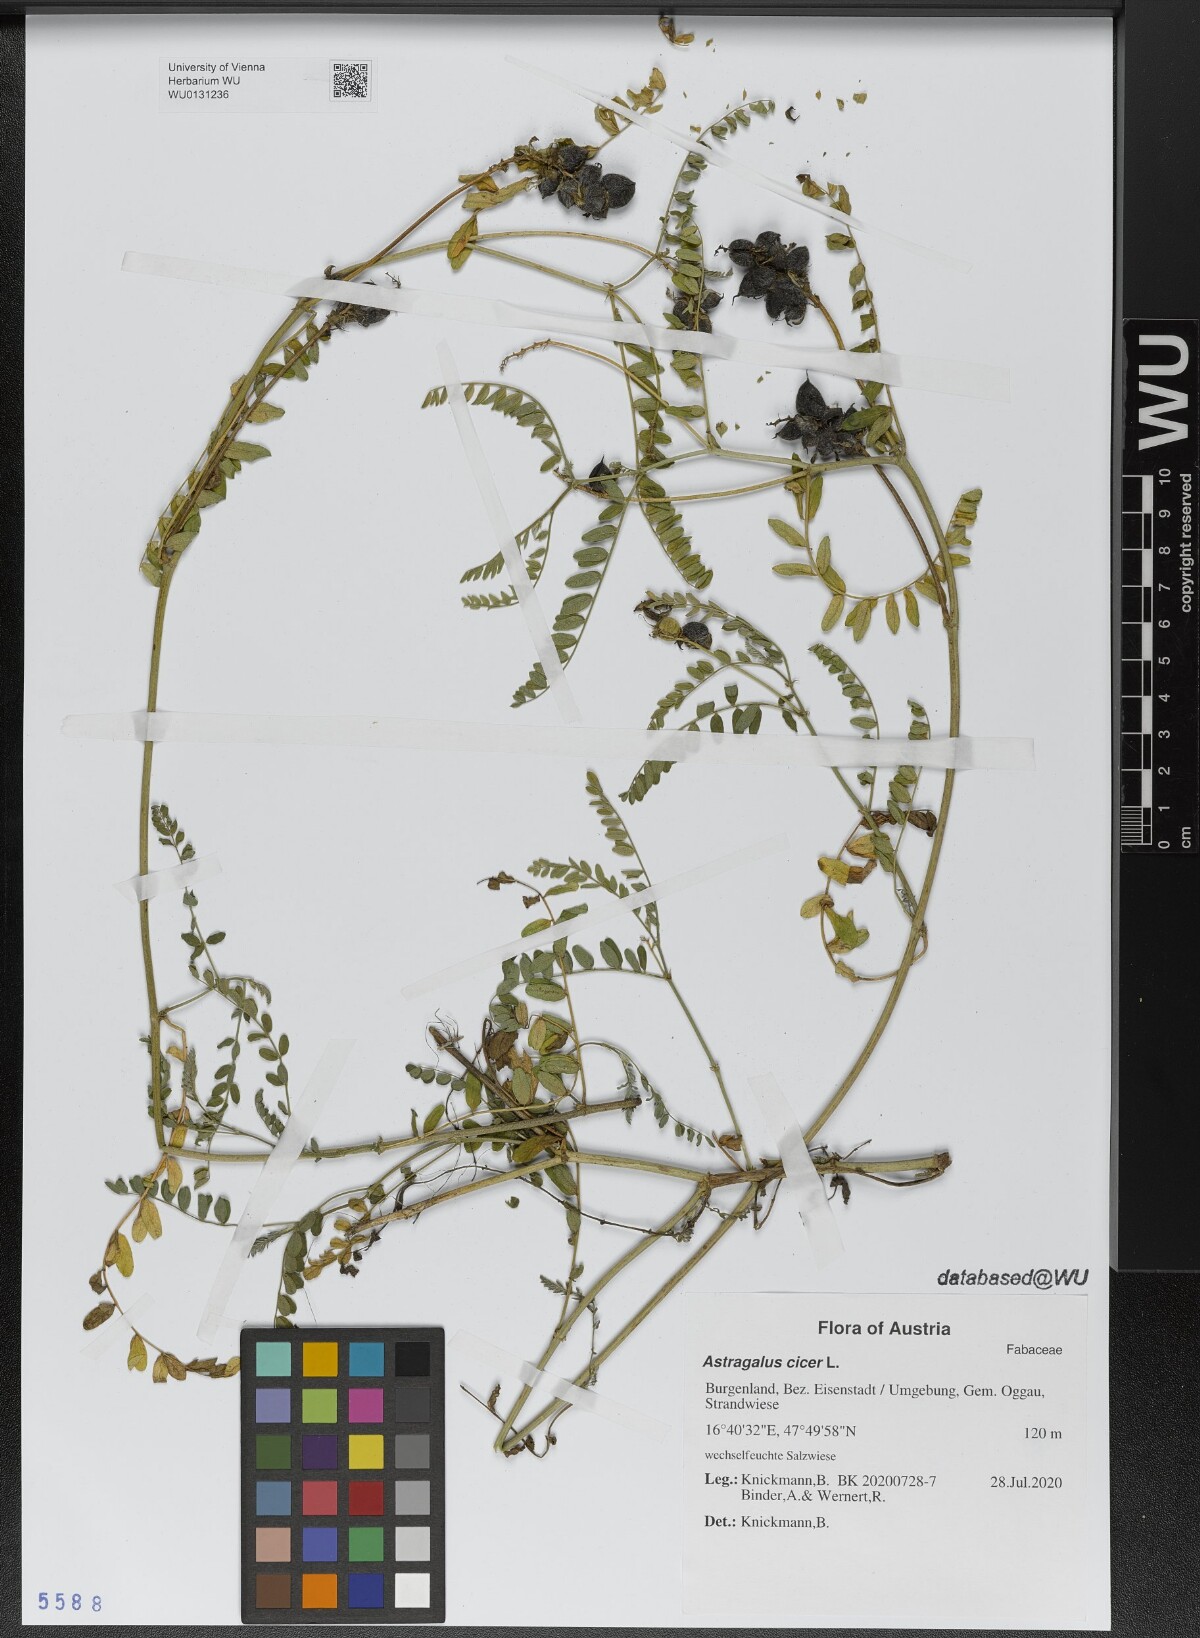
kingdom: Plantae
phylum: Tracheophyta
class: Magnoliopsida
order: Fabales
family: Fabaceae
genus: Astragalus
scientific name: Astragalus cicer
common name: Chick-pea milk-vetch
